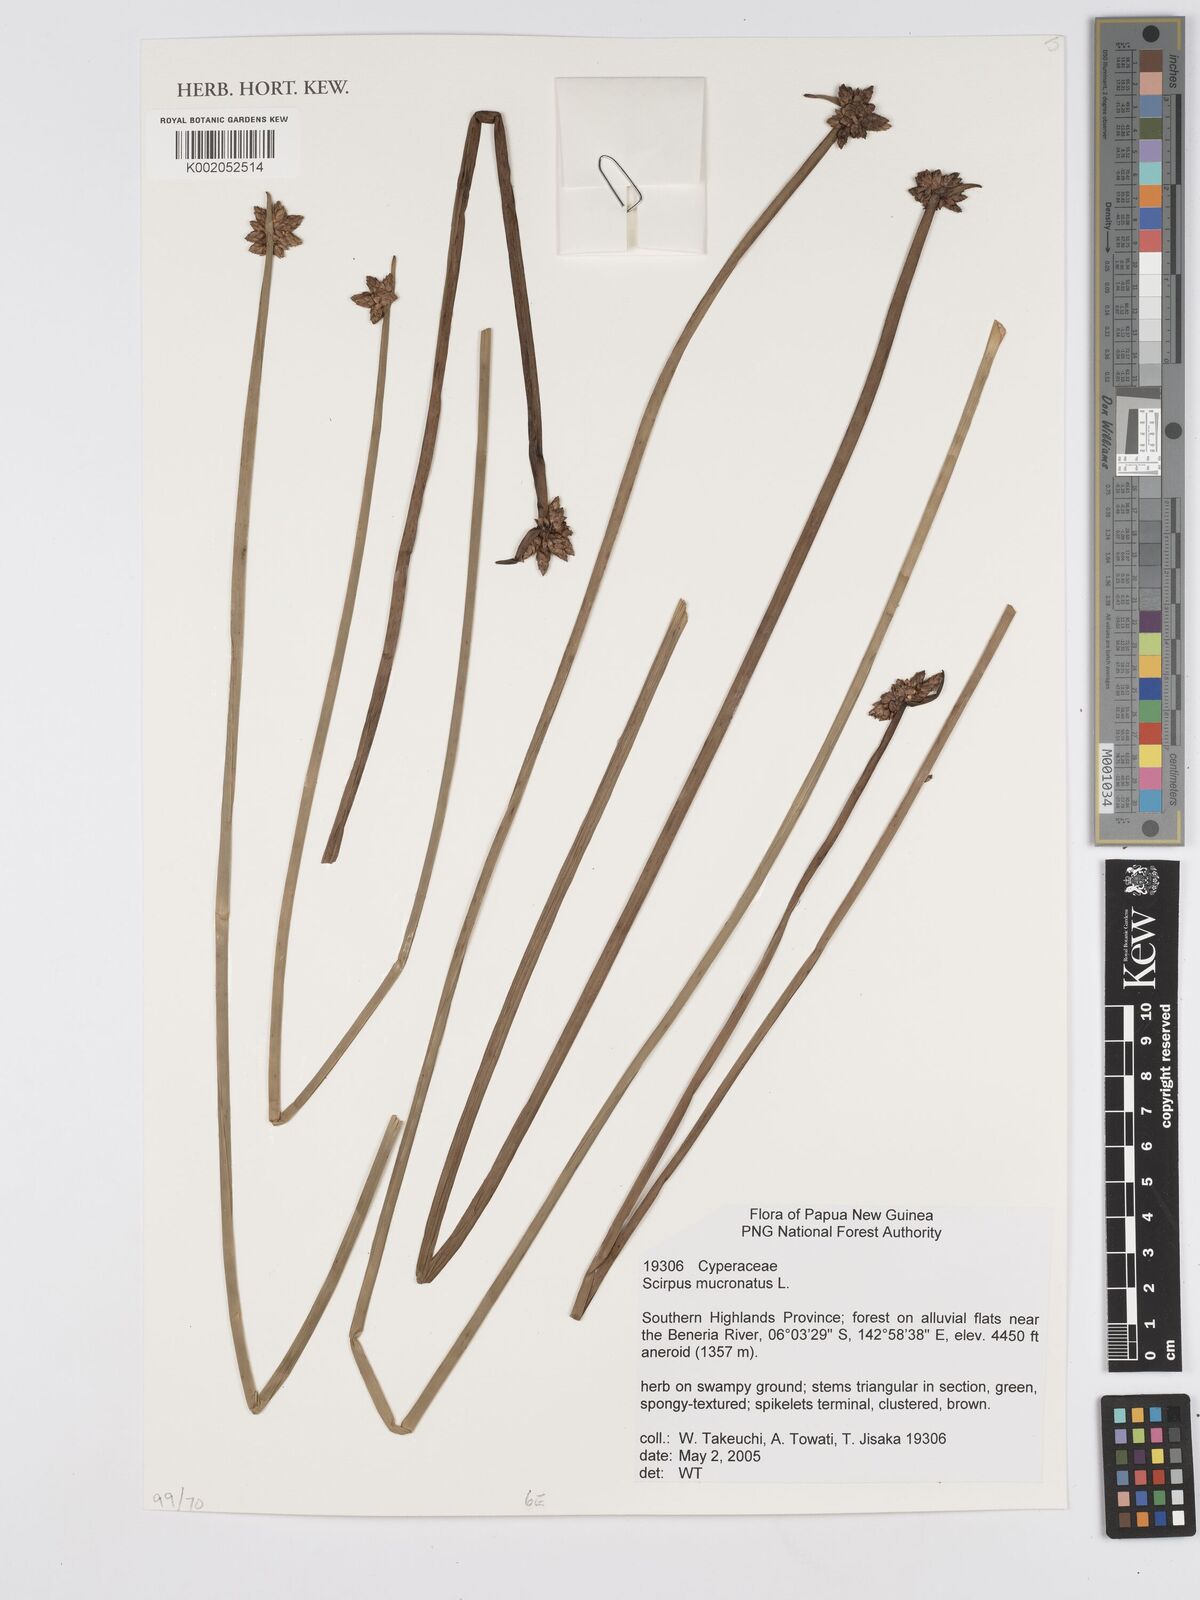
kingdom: Plantae
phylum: Tracheophyta
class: Liliopsida
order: Poales
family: Cyperaceae
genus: Schoenoplectiella
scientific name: Schoenoplectiella mucronata
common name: Bog bulrush
